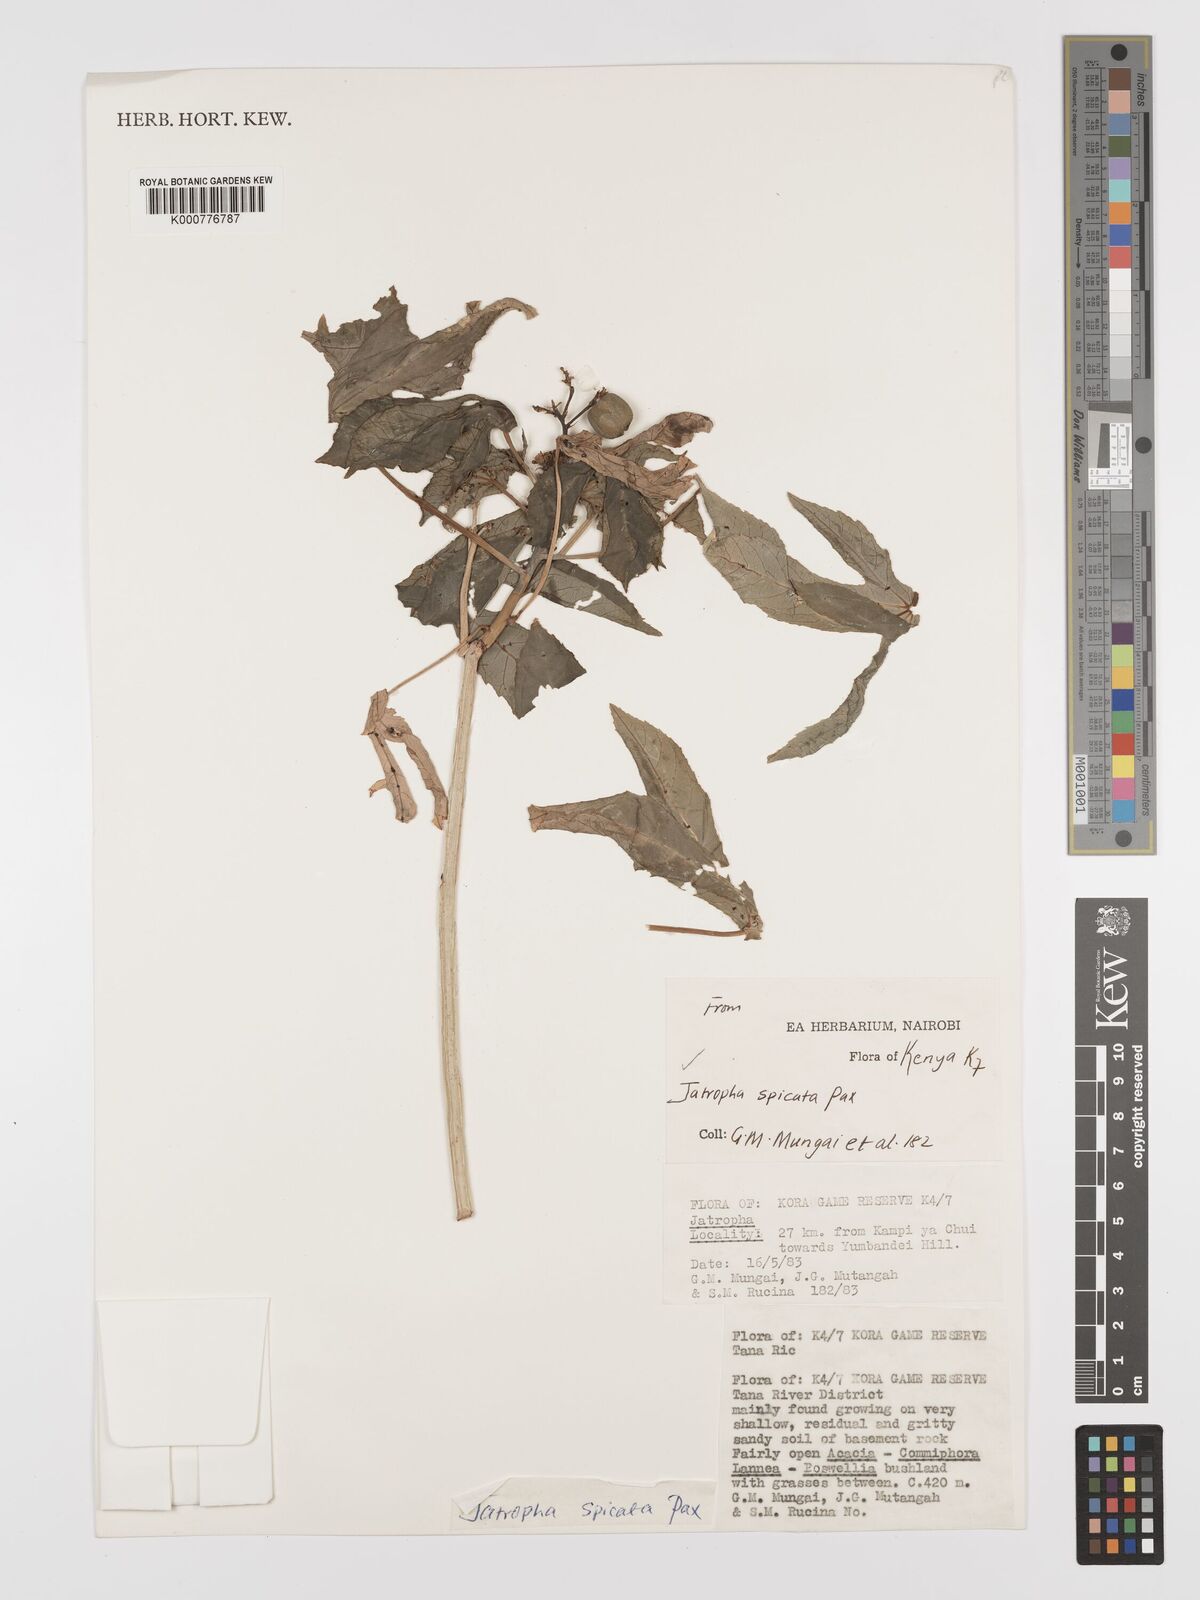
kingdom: Plantae
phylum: Tracheophyta
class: Magnoliopsida
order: Malpighiales
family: Euphorbiaceae
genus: Jatropha
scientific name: Jatropha spicata
